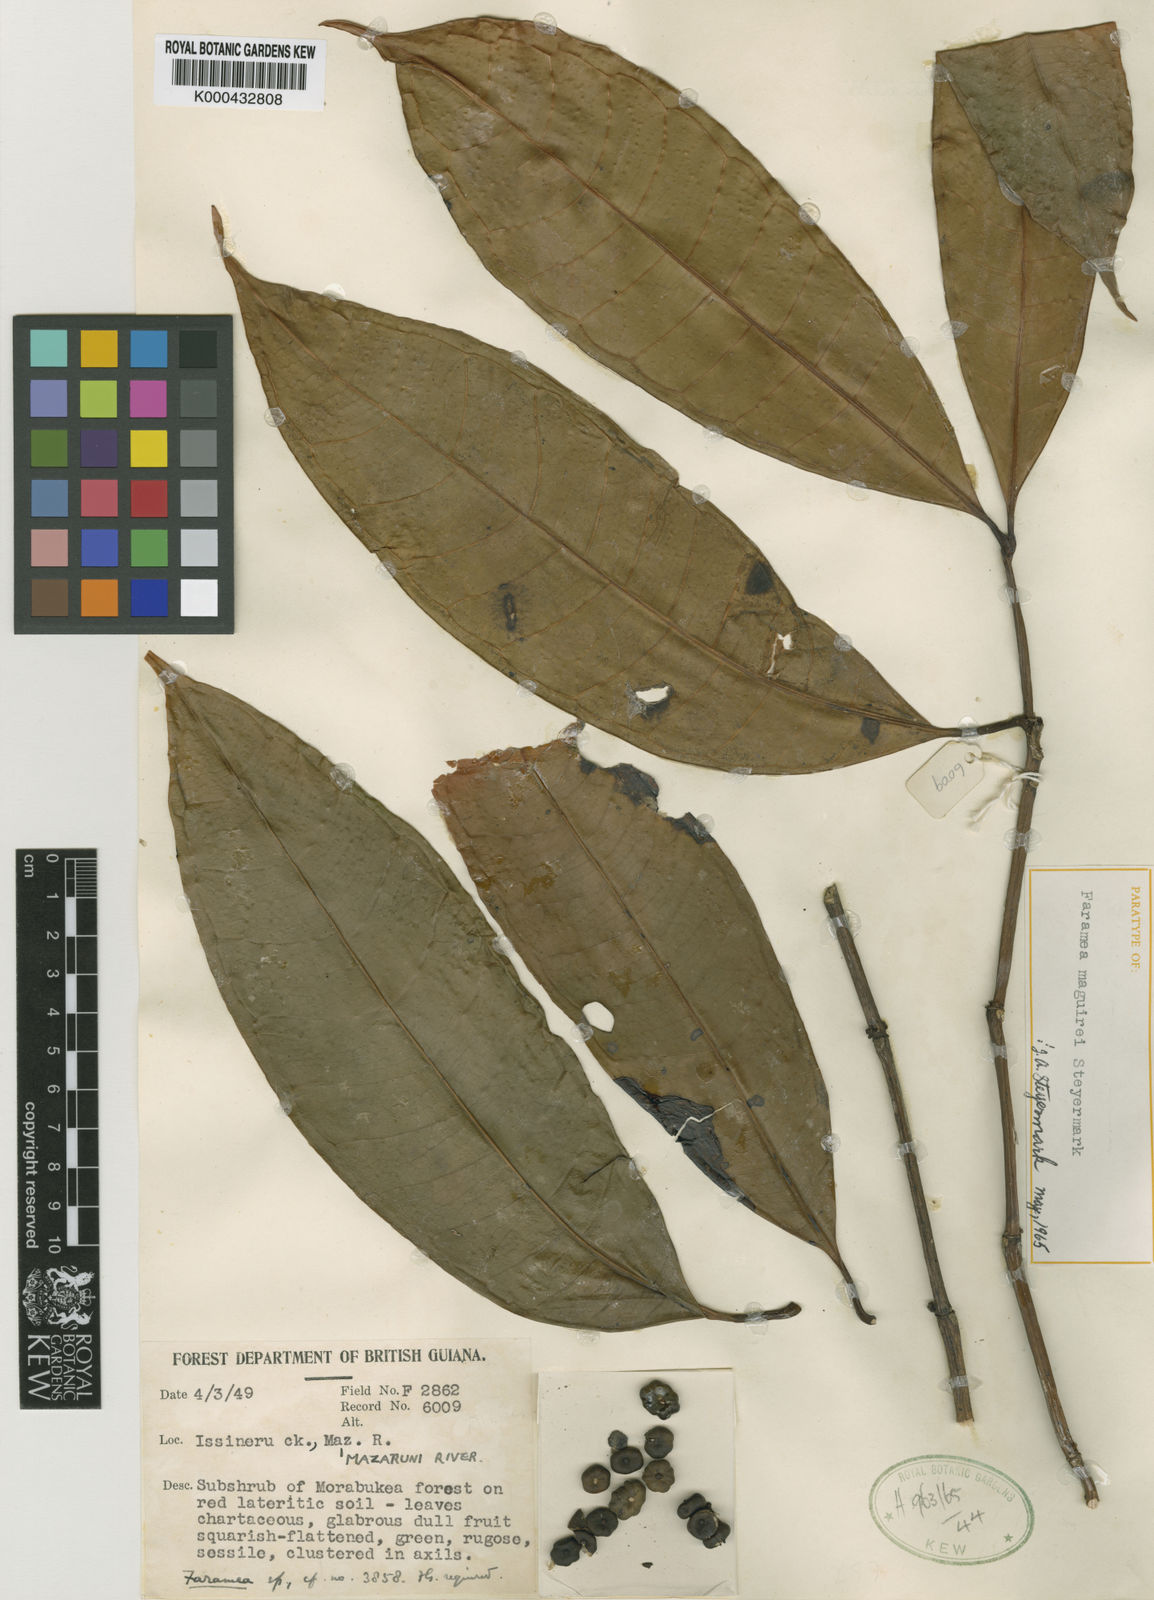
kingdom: Plantae
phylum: Tracheophyta
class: Magnoliopsida
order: Gentianales
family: Rubiaceae
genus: Faramea
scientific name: Faramea maguirei
